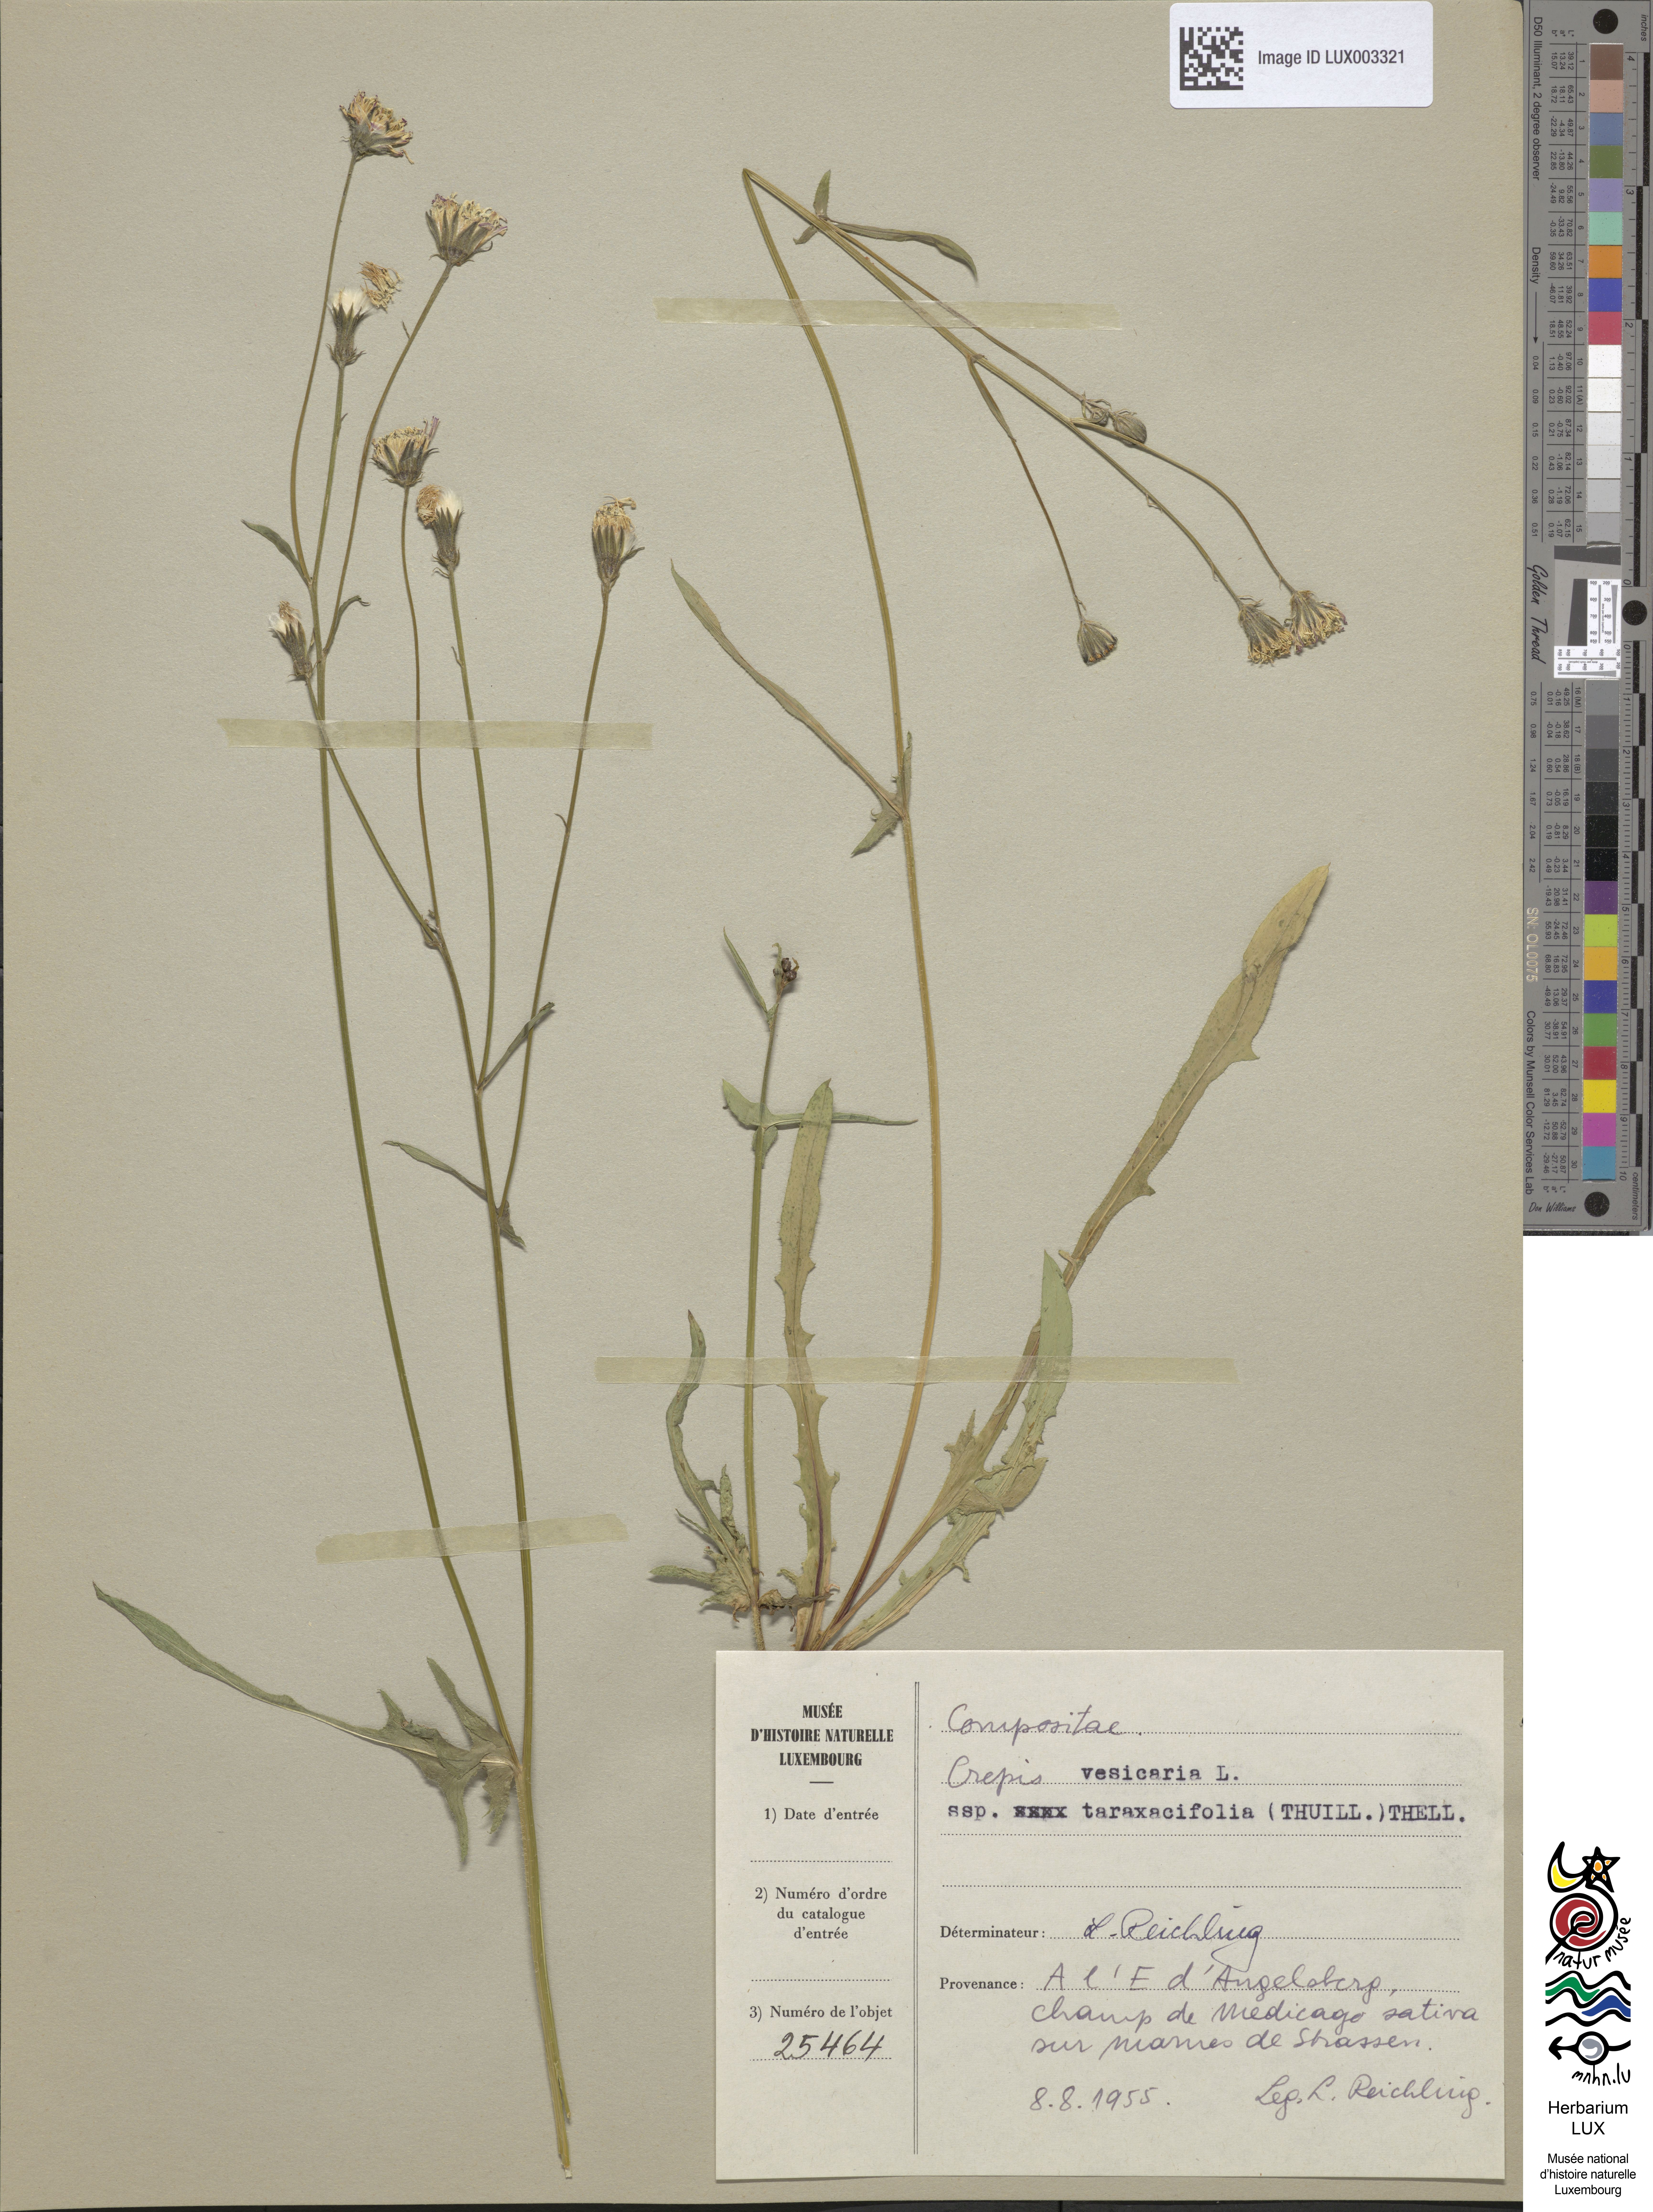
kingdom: Plantae
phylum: Tracheophyta
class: Magnoliopsida
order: Asterales
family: Asteraceae
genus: Crepis
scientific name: Crepis vesicaria
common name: Beaked hawksbeard
